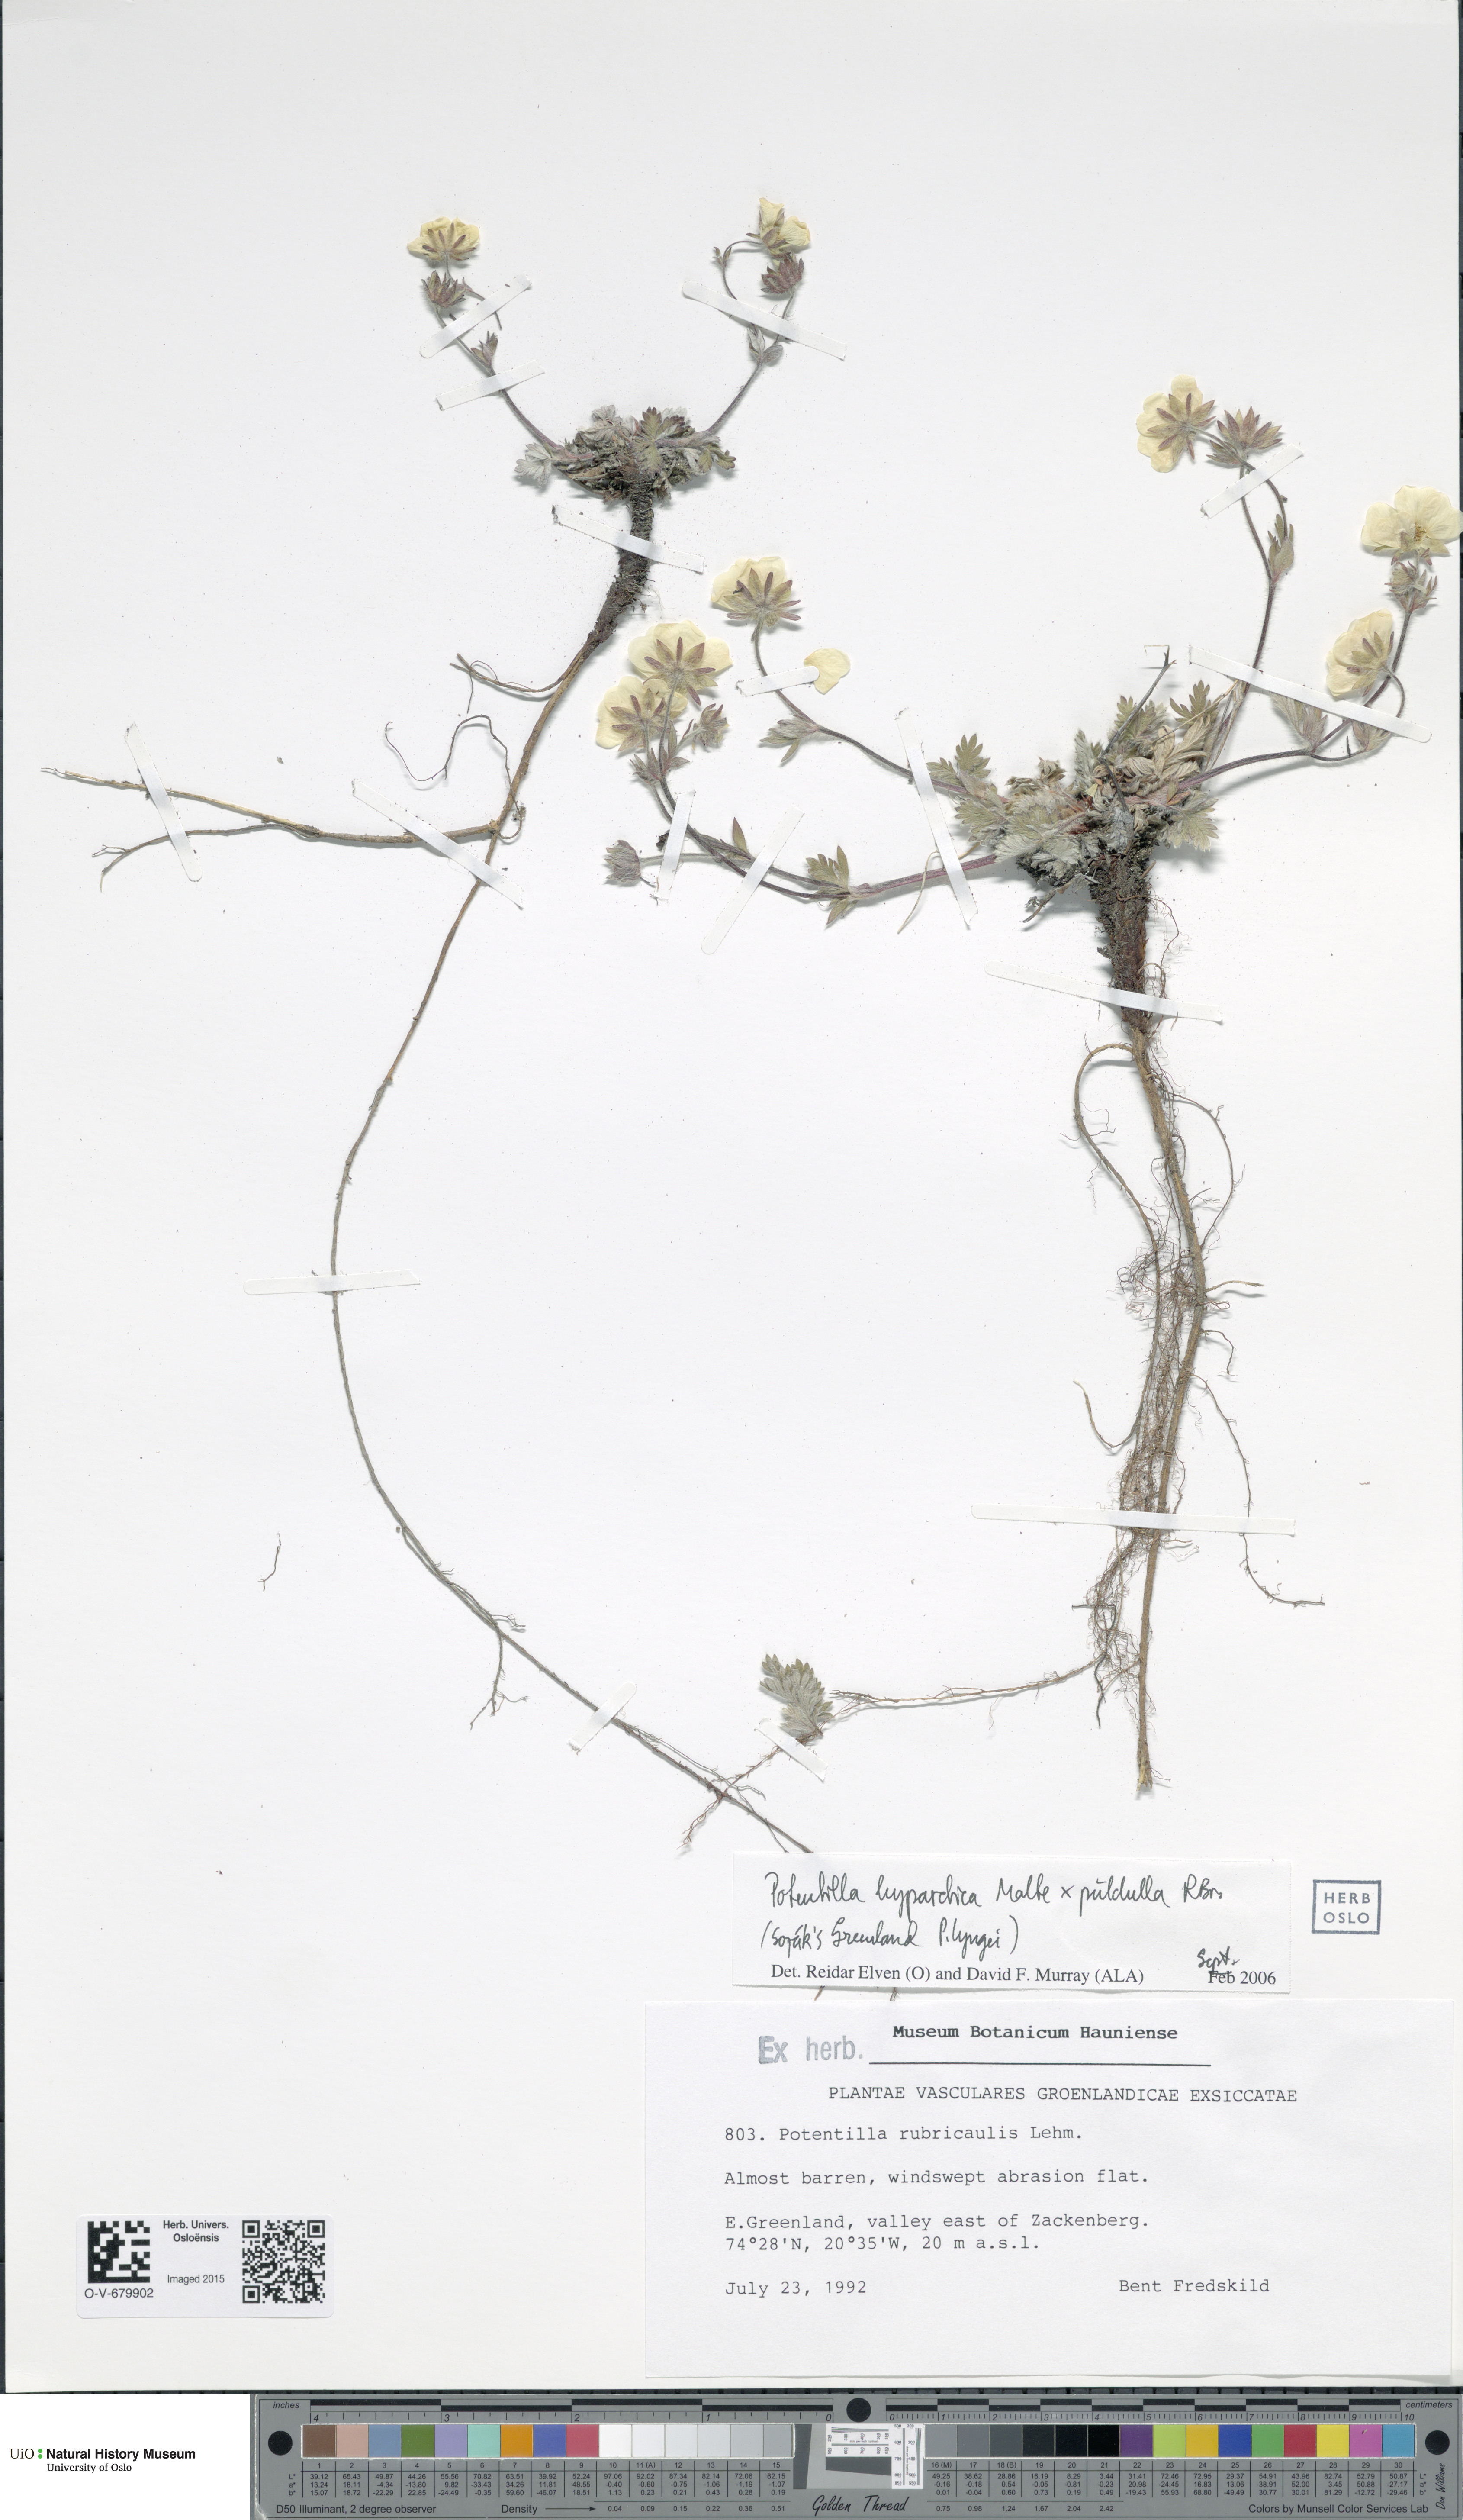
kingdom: Plantae
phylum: Tracheophyta
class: Magnoliopsida
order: Rosales
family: Rosaceae
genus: Potentilla
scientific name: Potentilla
